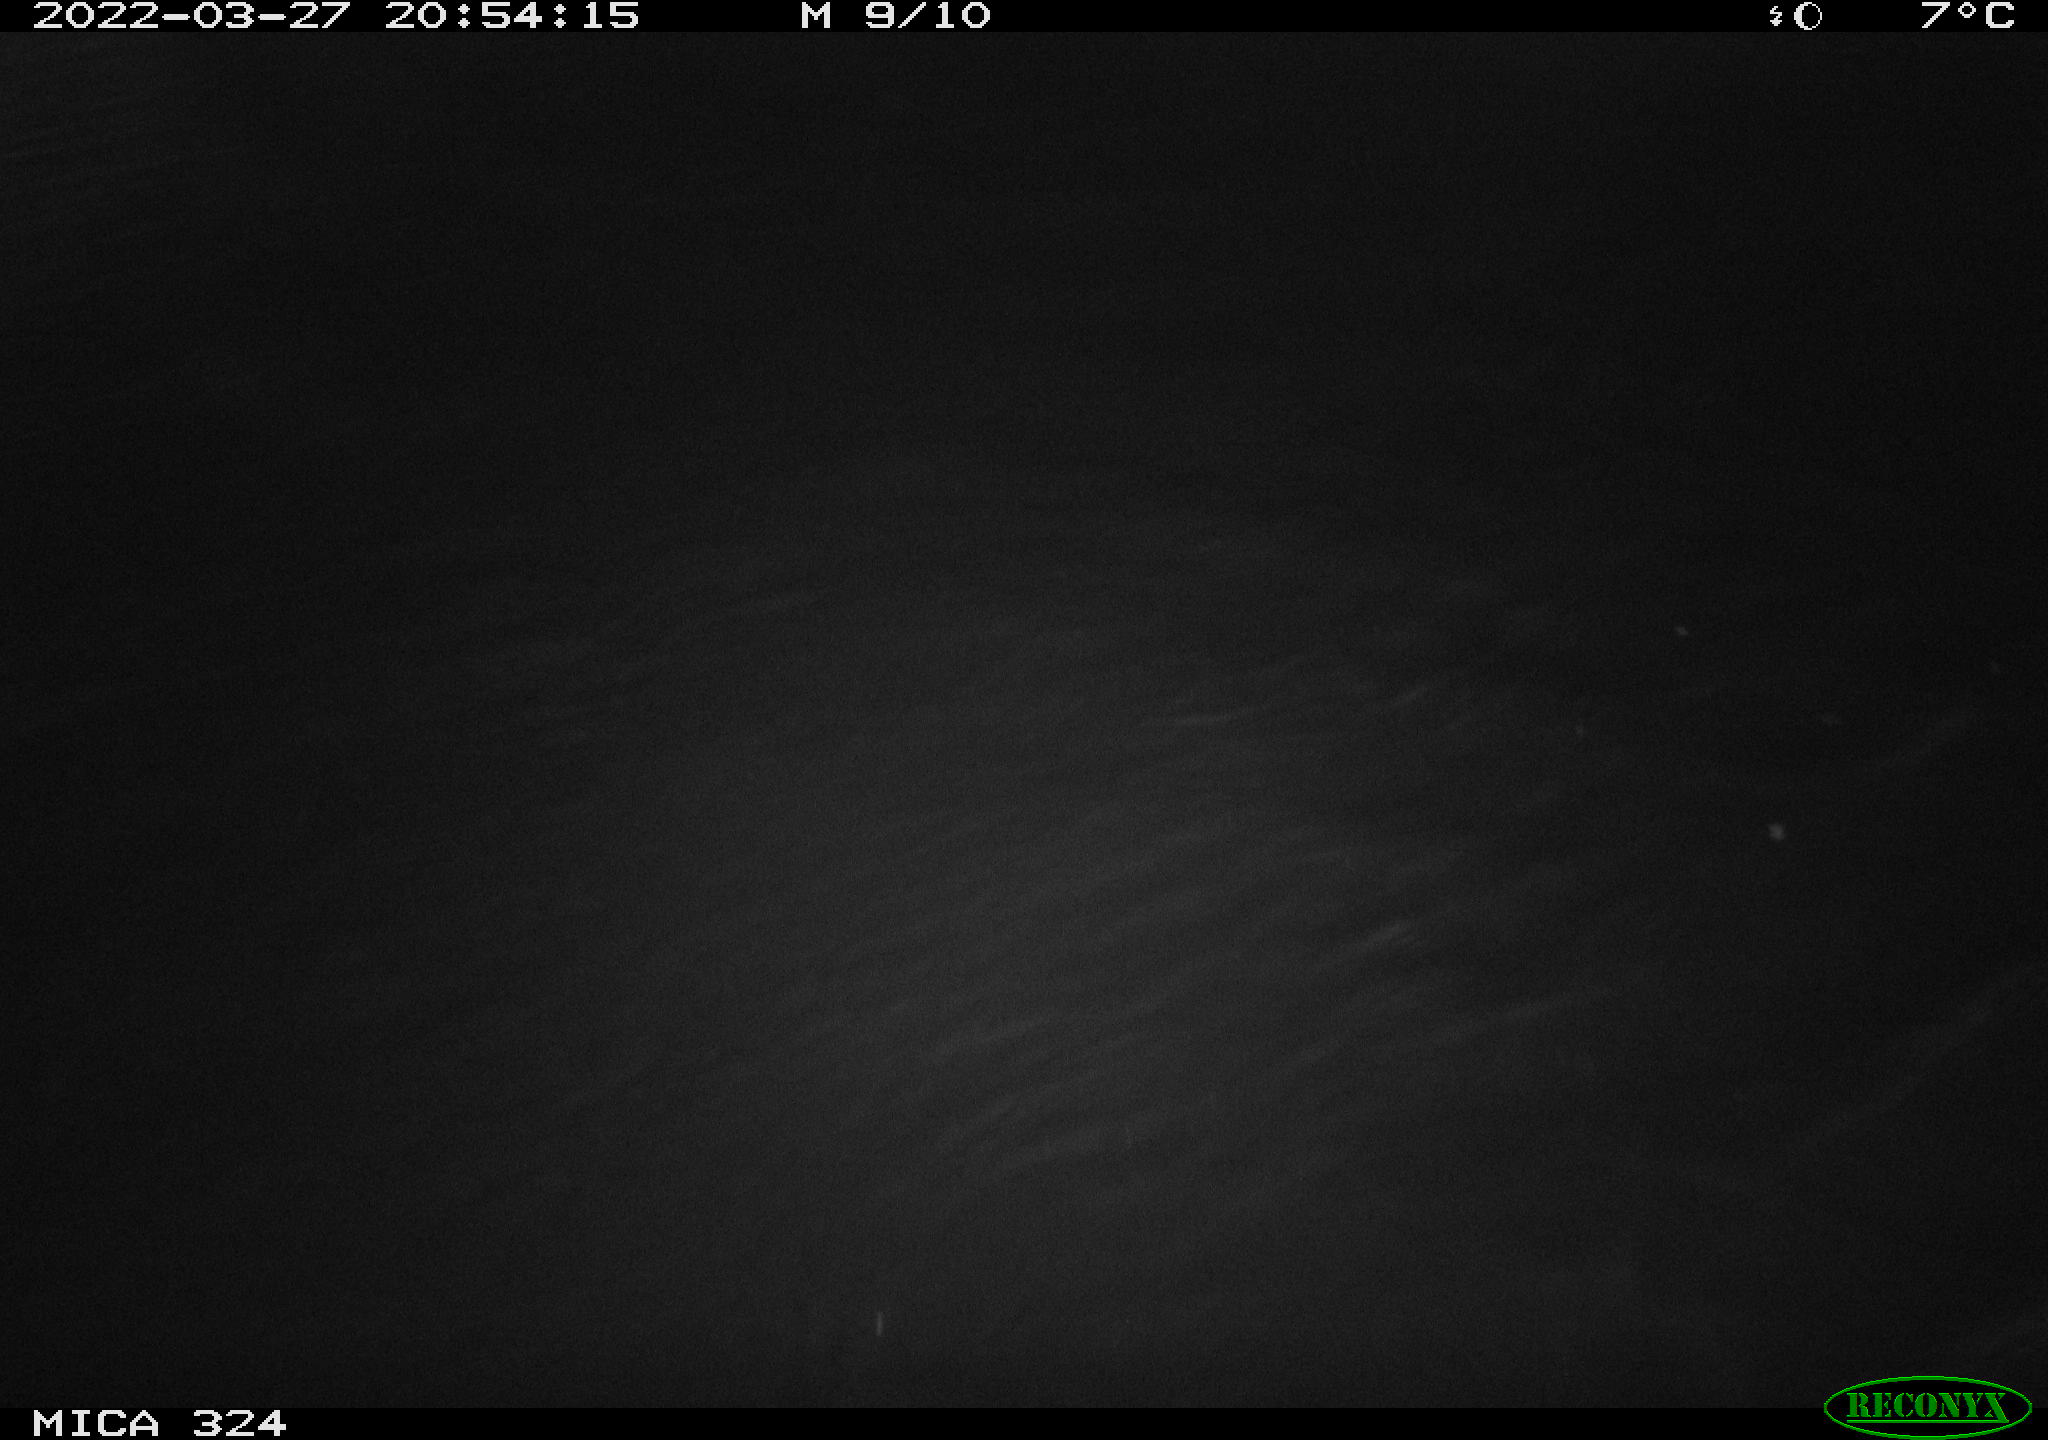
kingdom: Animalia
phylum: Chordata
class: Mammalia
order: Rodentia
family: Cricetidae
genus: Ondatra
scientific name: Ondatra zibethicus
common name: Muskrat
